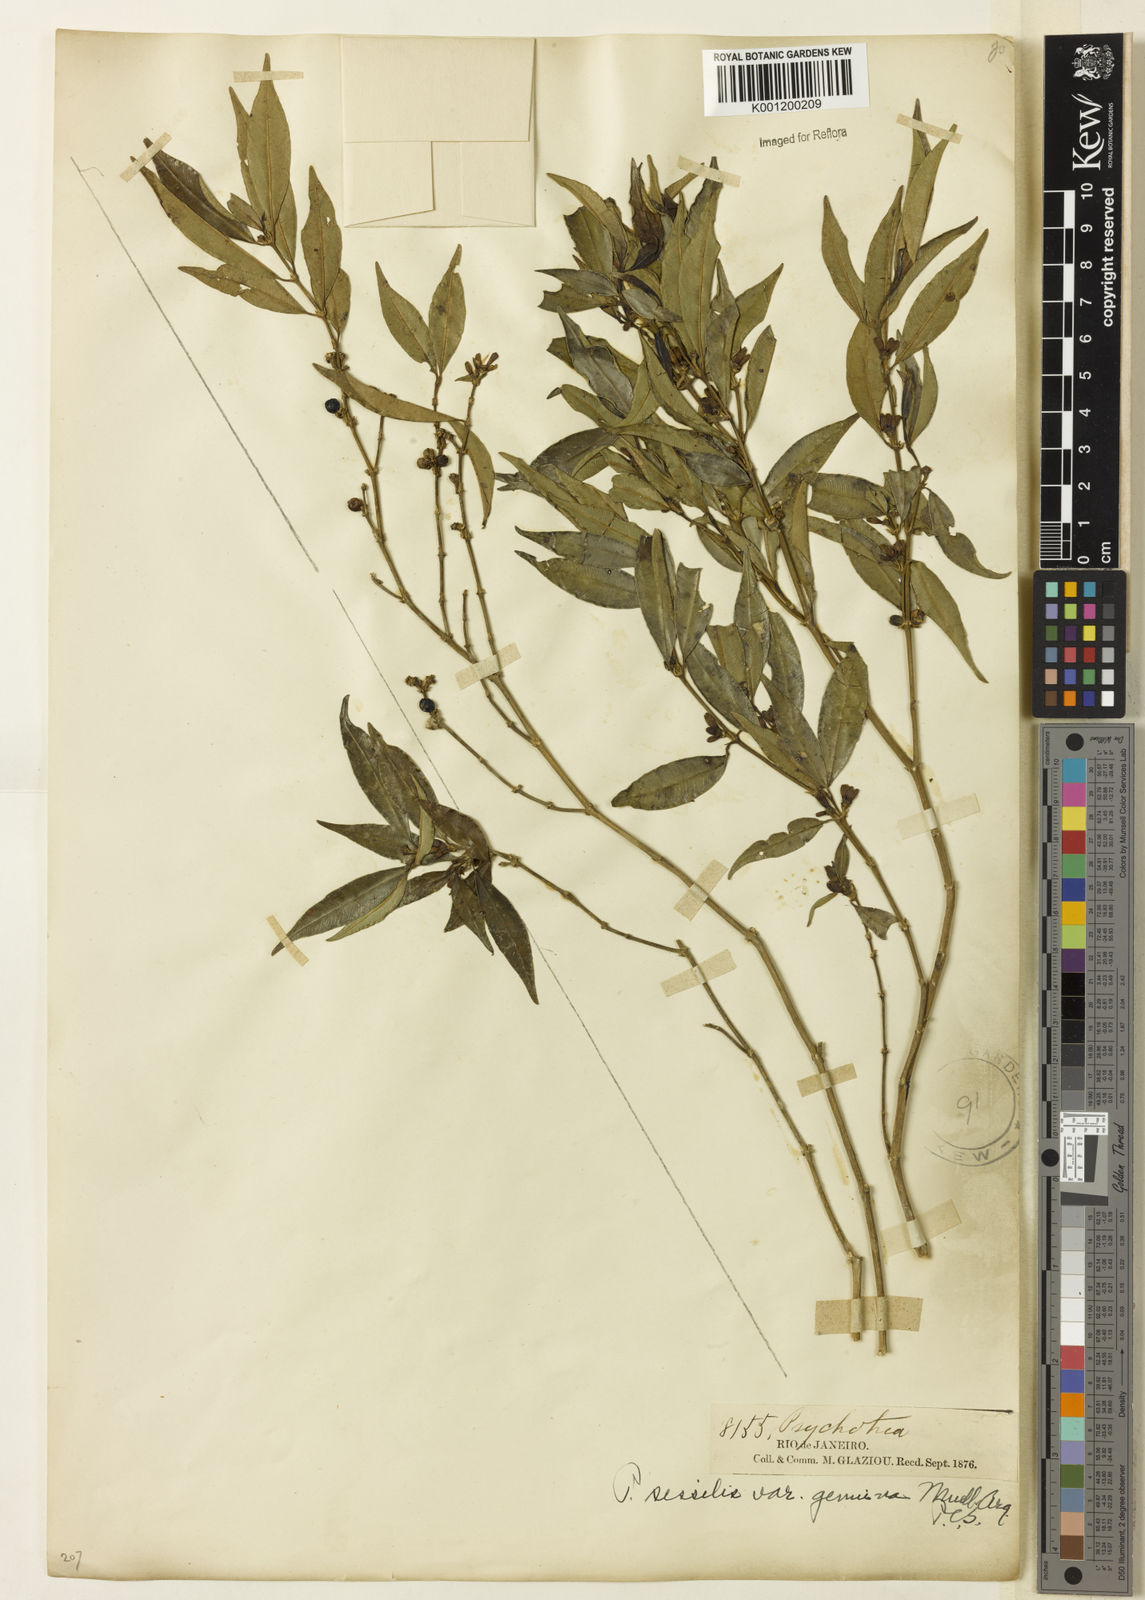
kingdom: Plantae
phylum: Tracheophyta
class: Magnoliopsida
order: Gentianales
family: Rubiaceae
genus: Rudgea
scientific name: Rudgea sessilis
